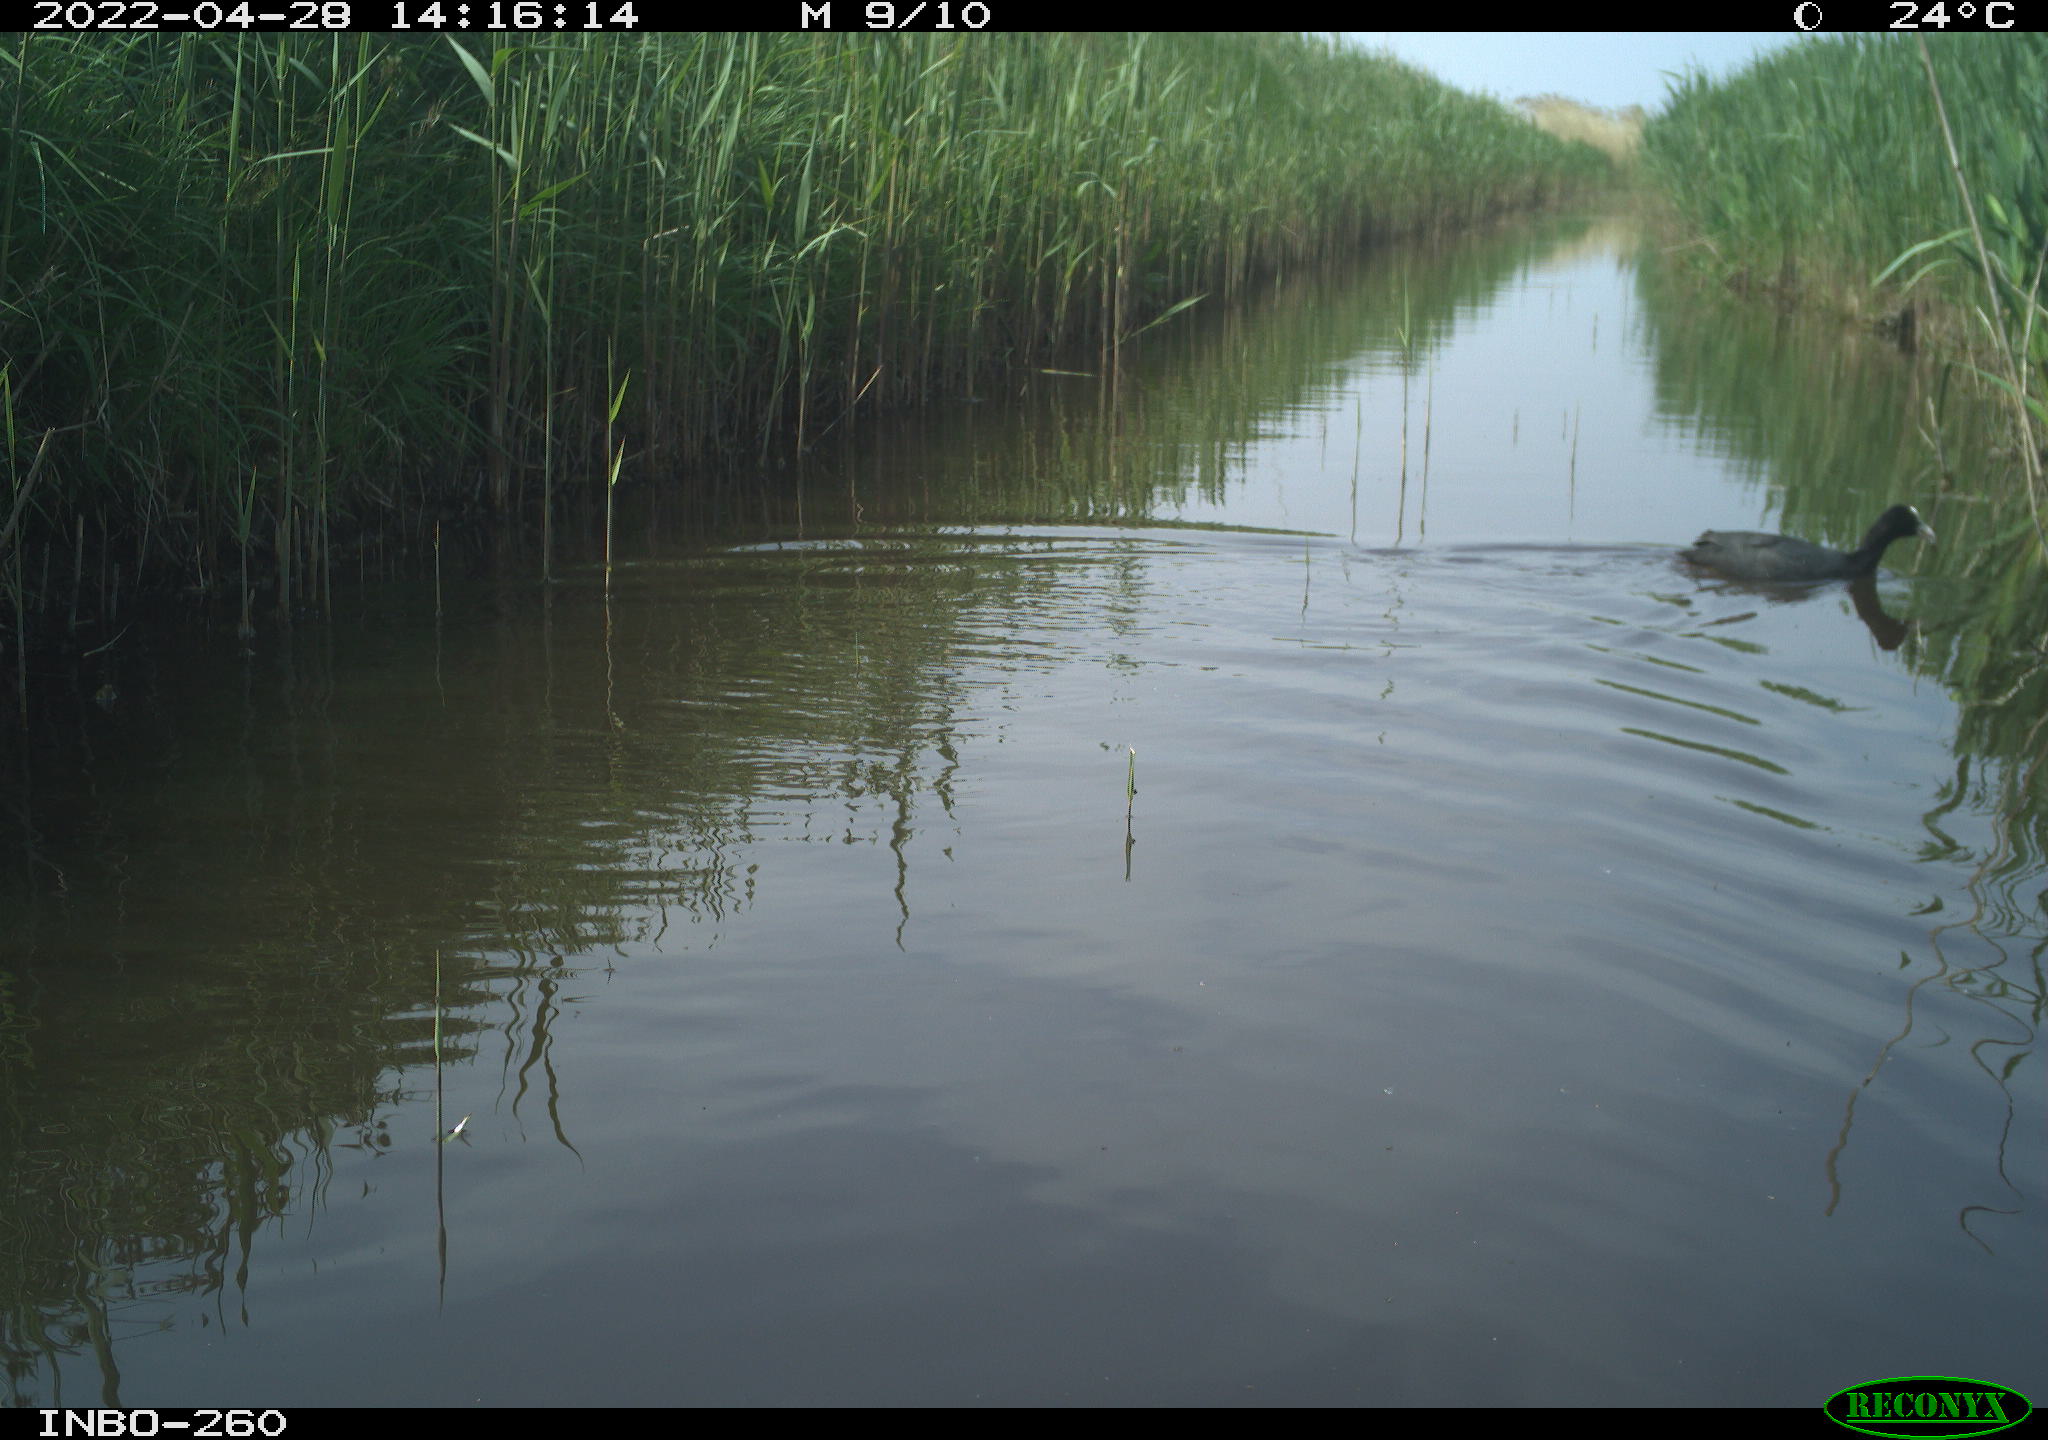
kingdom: Animalia
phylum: Chordata
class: Aves
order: Gruiformes
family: Rallidae
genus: Fulica
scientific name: Fulica atra
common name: Eurasian coot
